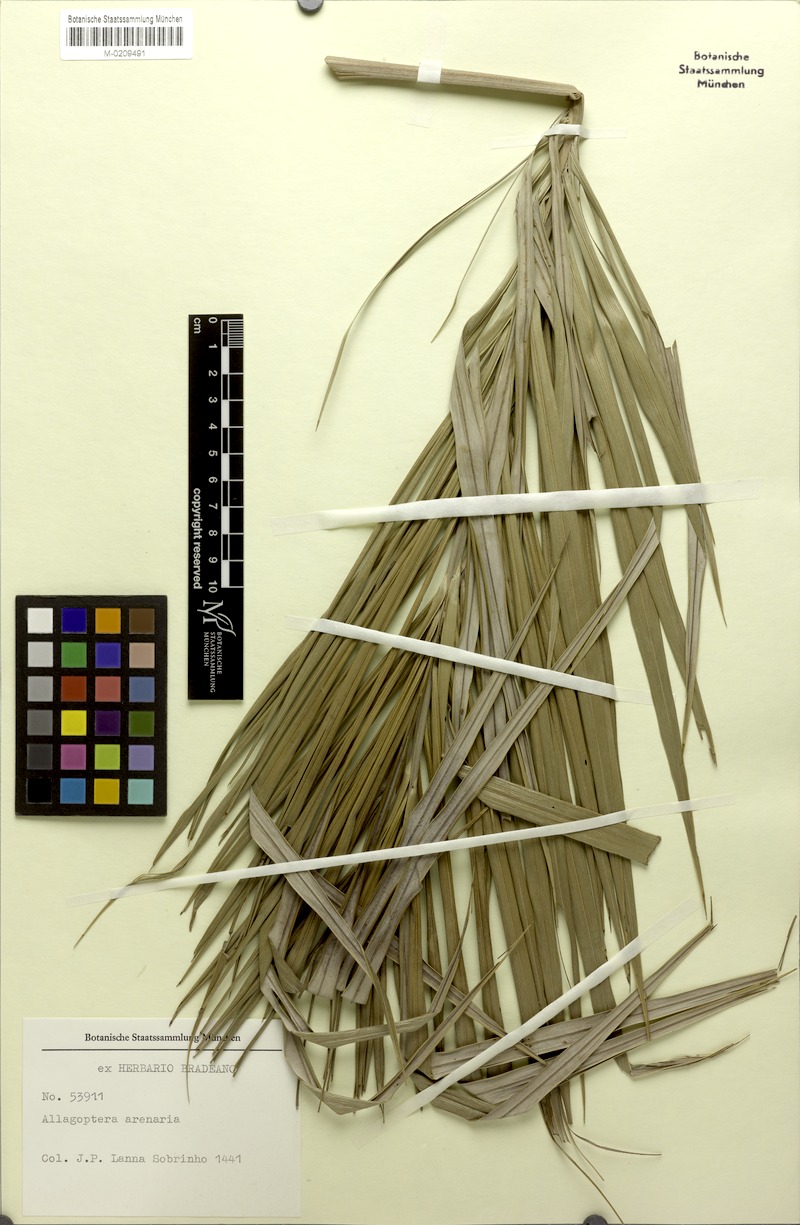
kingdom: Plantae
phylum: Tracheophyta
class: Liliopsida
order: Arecales
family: Arecaceae
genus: Allagoptera
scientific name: Allagoptera arenaria
